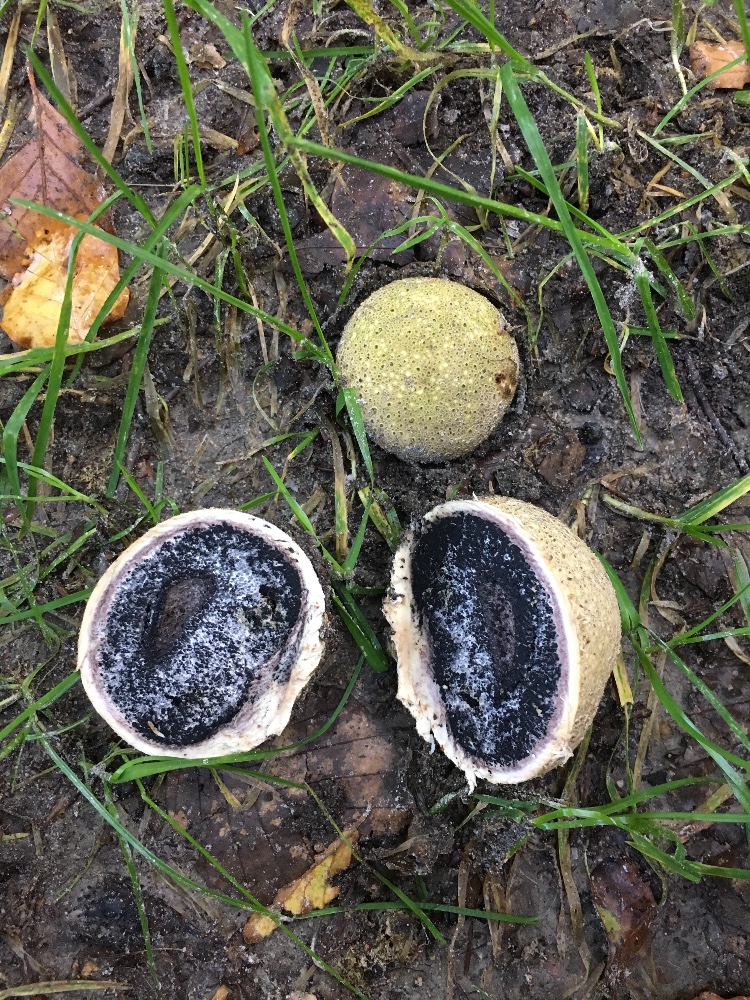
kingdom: Fungi
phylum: Basidiomycota
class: Agaricomycetes
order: Boletales
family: Sclerodermataceae
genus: Scleroderma
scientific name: Scleroderma citrinum
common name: almindelig bruskbold
